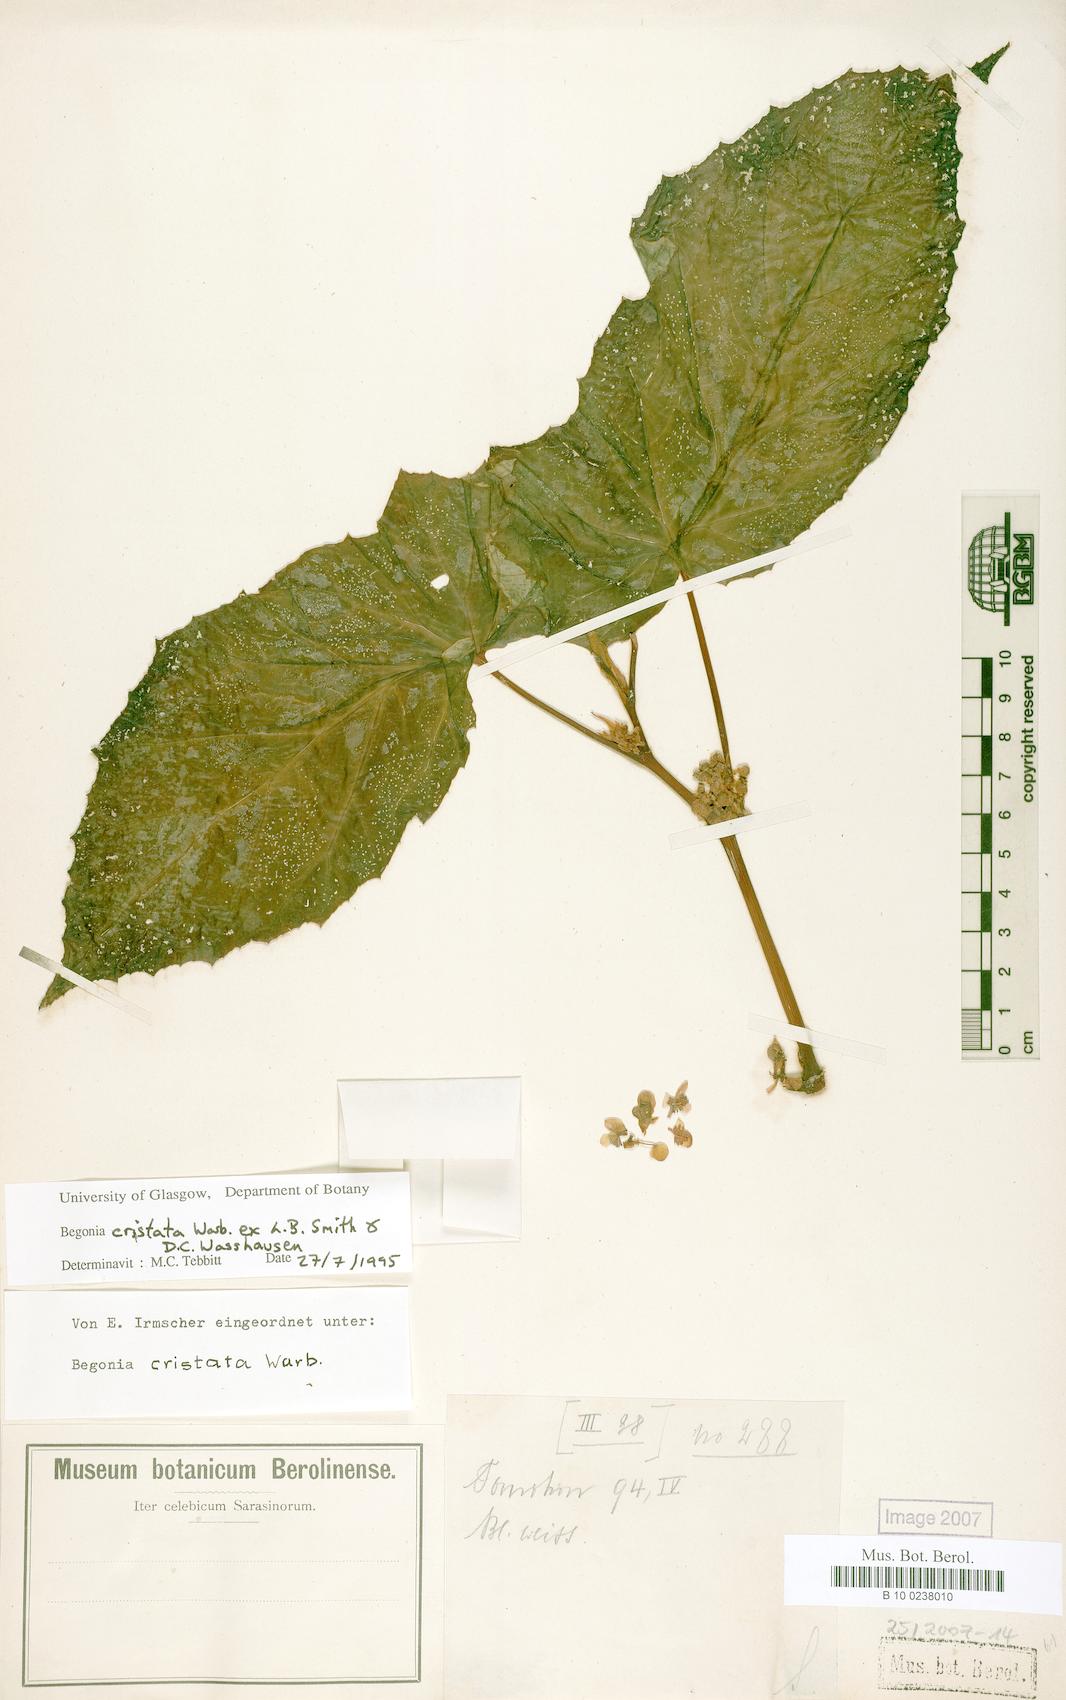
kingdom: Plantae
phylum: Tracheophyta
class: Magnoliopsida
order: Cucurbitales
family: Begoniaceae
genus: Begonia
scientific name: Begonia aptera
